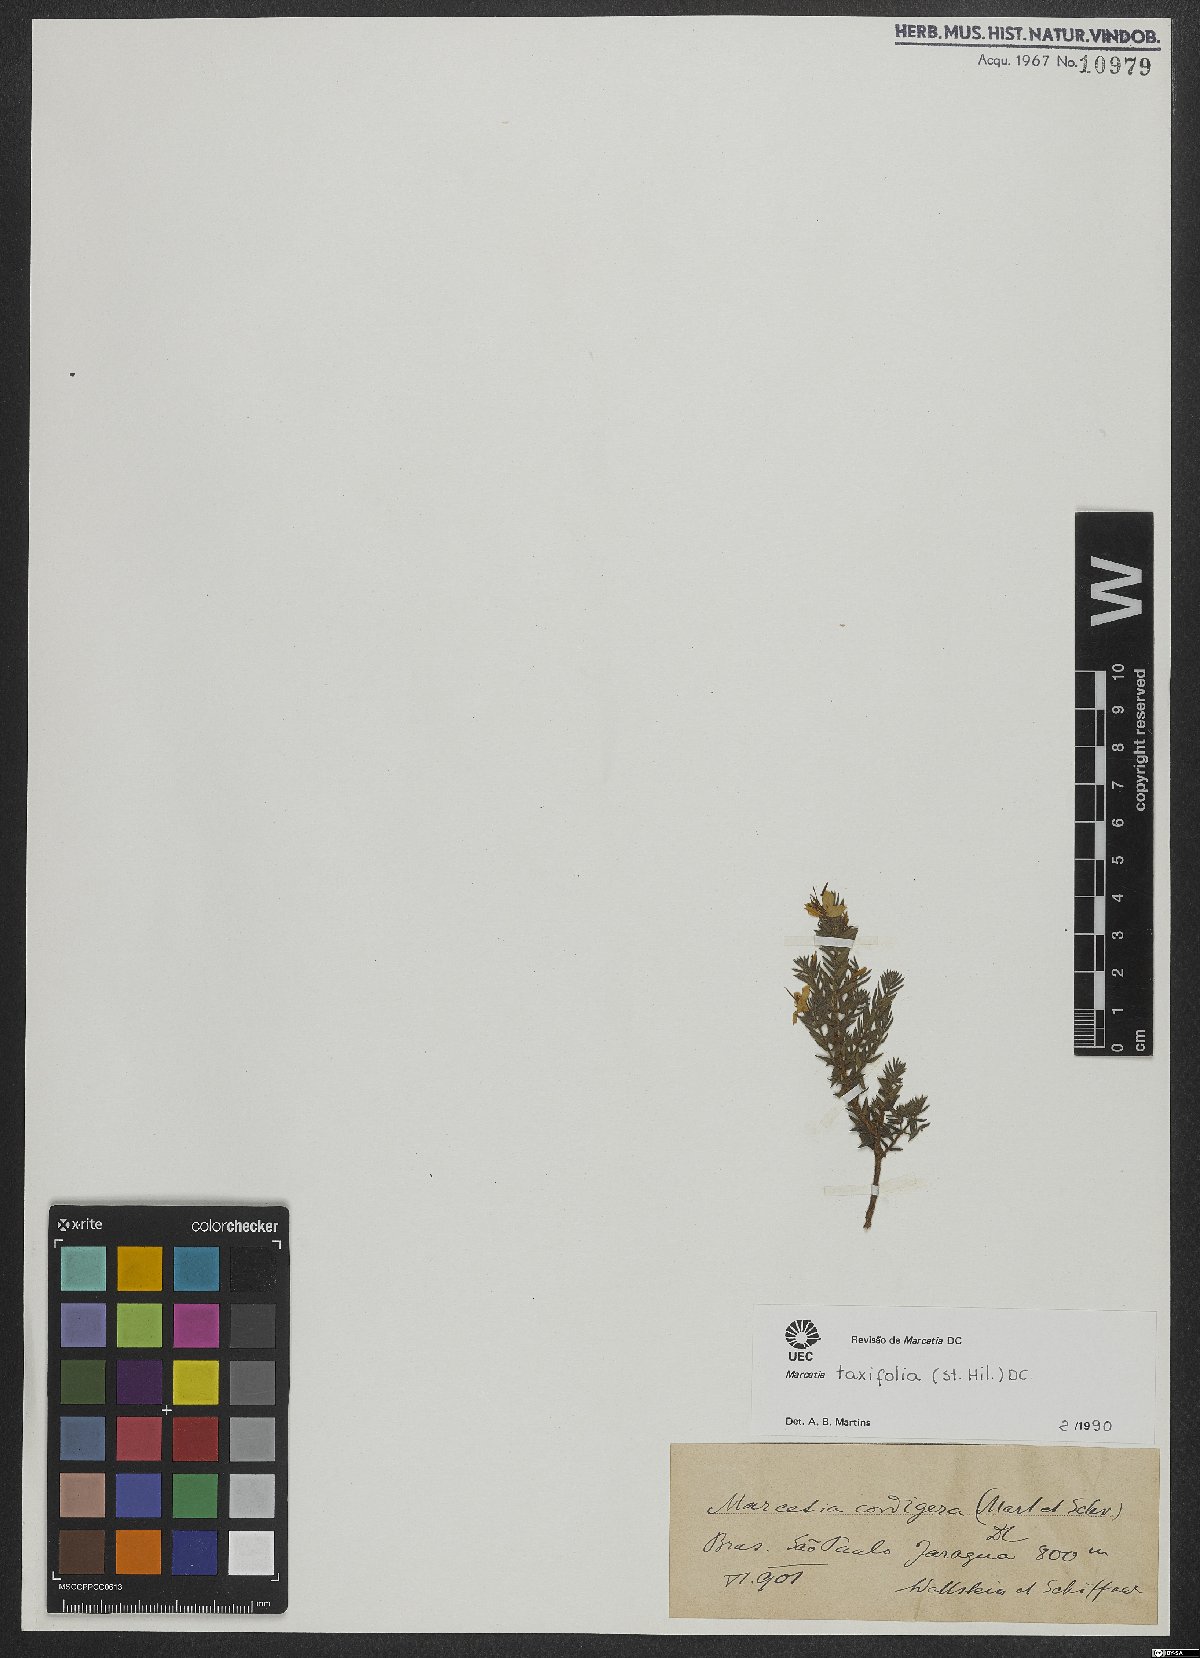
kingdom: Plantae
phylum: Tracheophyta
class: Magnoliopsida
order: Myrtales
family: Melastomataceae
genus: Marcetia
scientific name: Marcetia taxifolia
